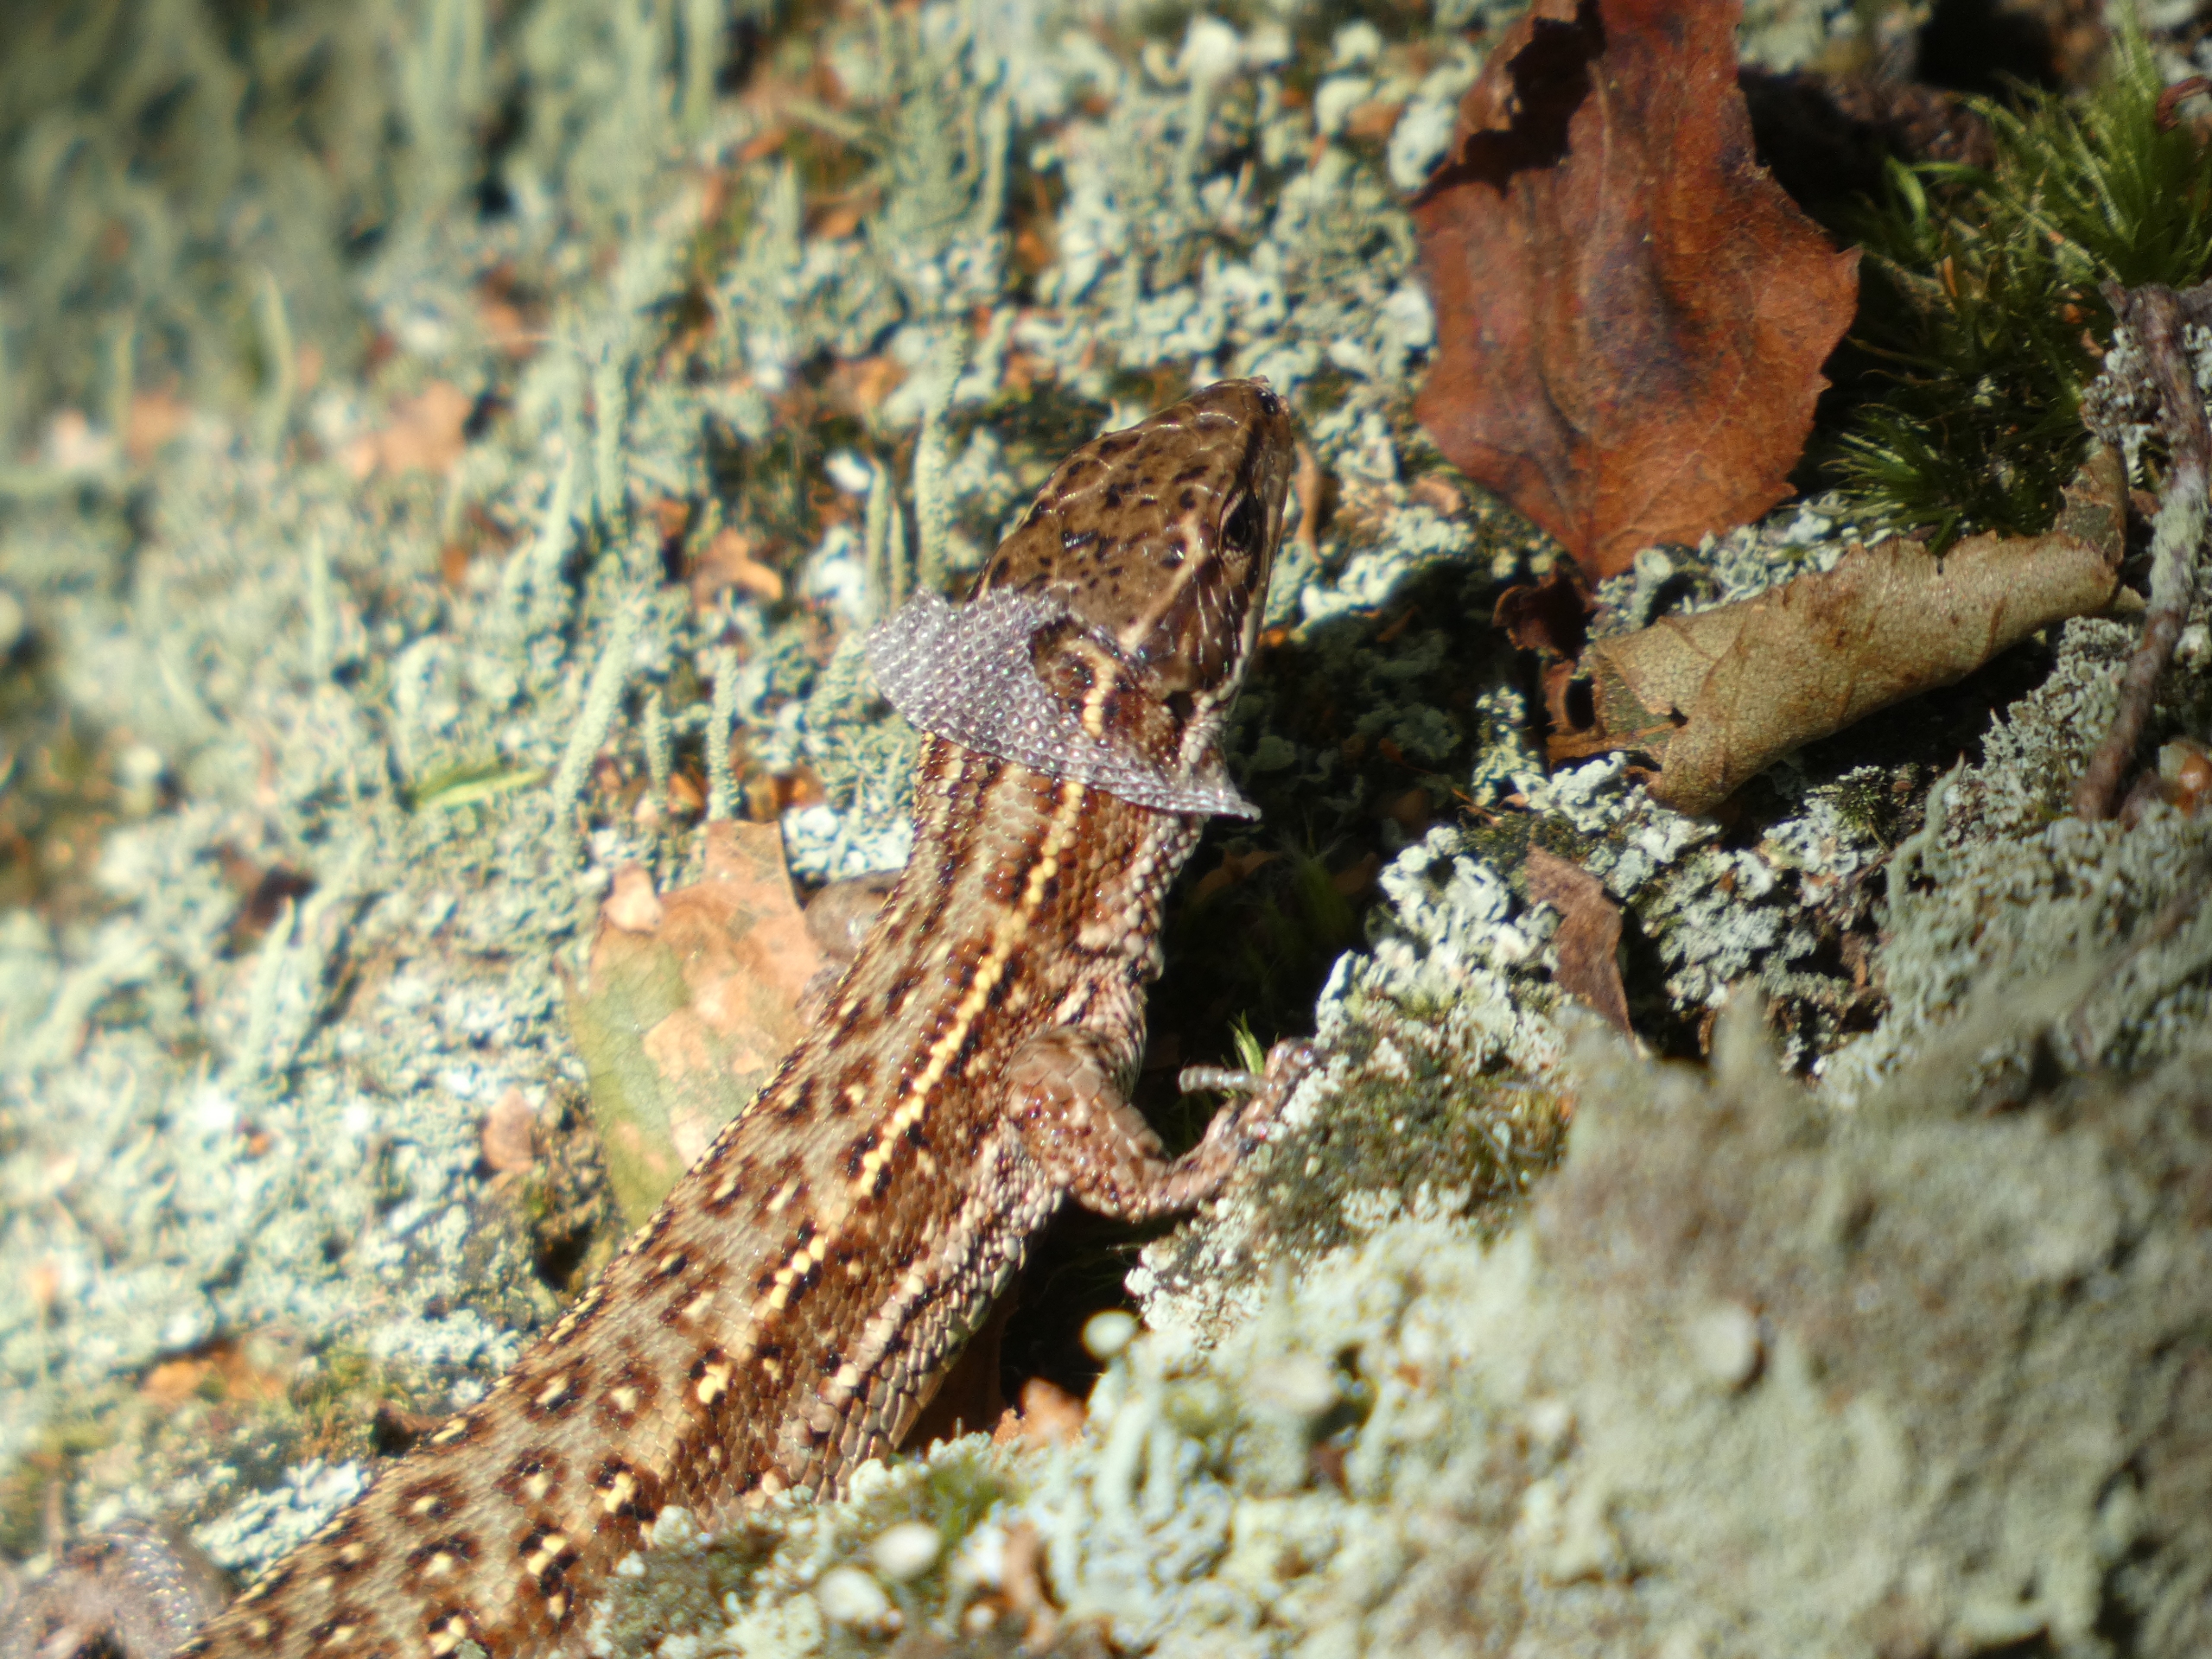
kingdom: Animalia
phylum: Chordata
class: Squamata
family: Lacertidae
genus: Zootoca
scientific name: Zootoca vivipara
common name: Skovfirben
